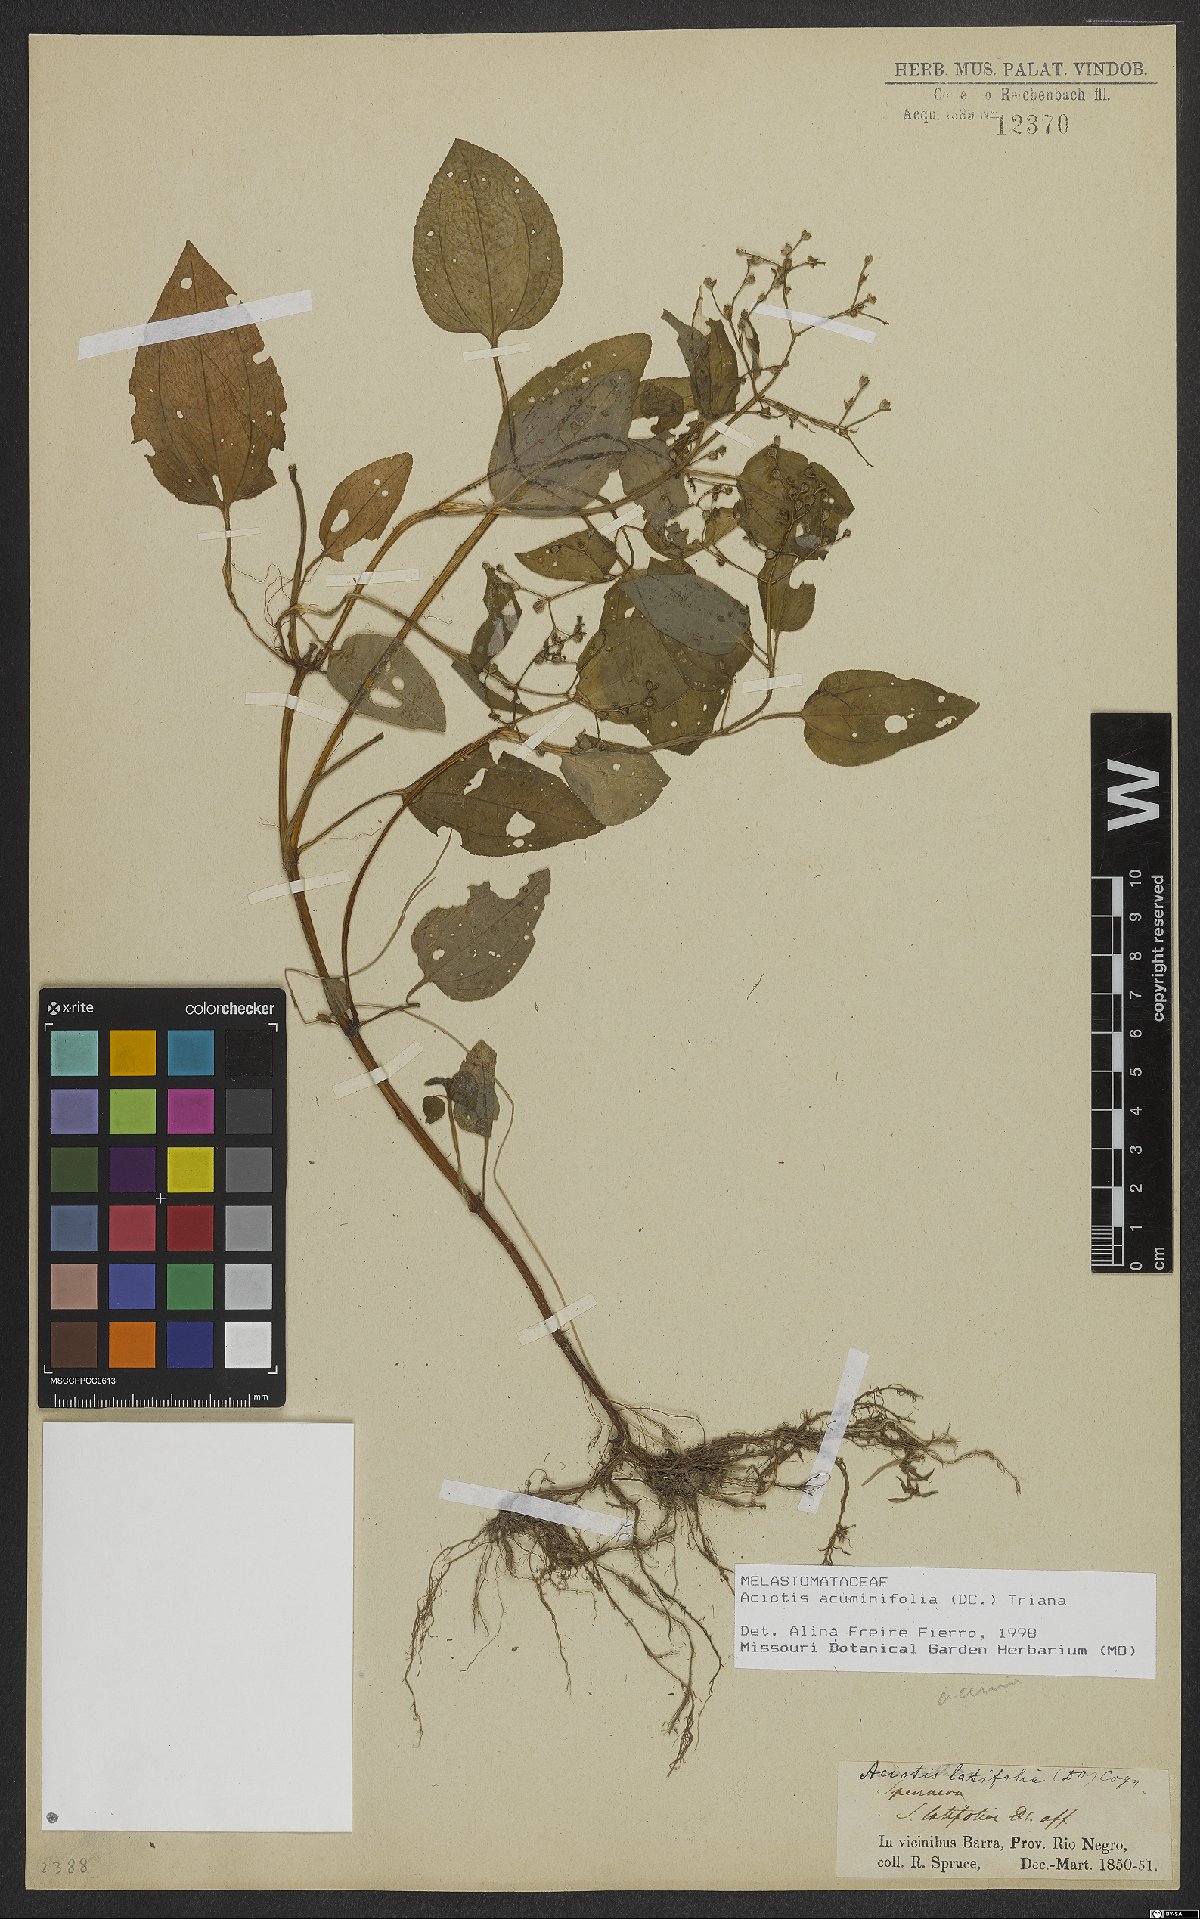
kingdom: Plantae
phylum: Tracheophyta
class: Magnoliopsida
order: Myrtales
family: Melastomataceae
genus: Aciotis
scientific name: Aciotis acuminifolia
